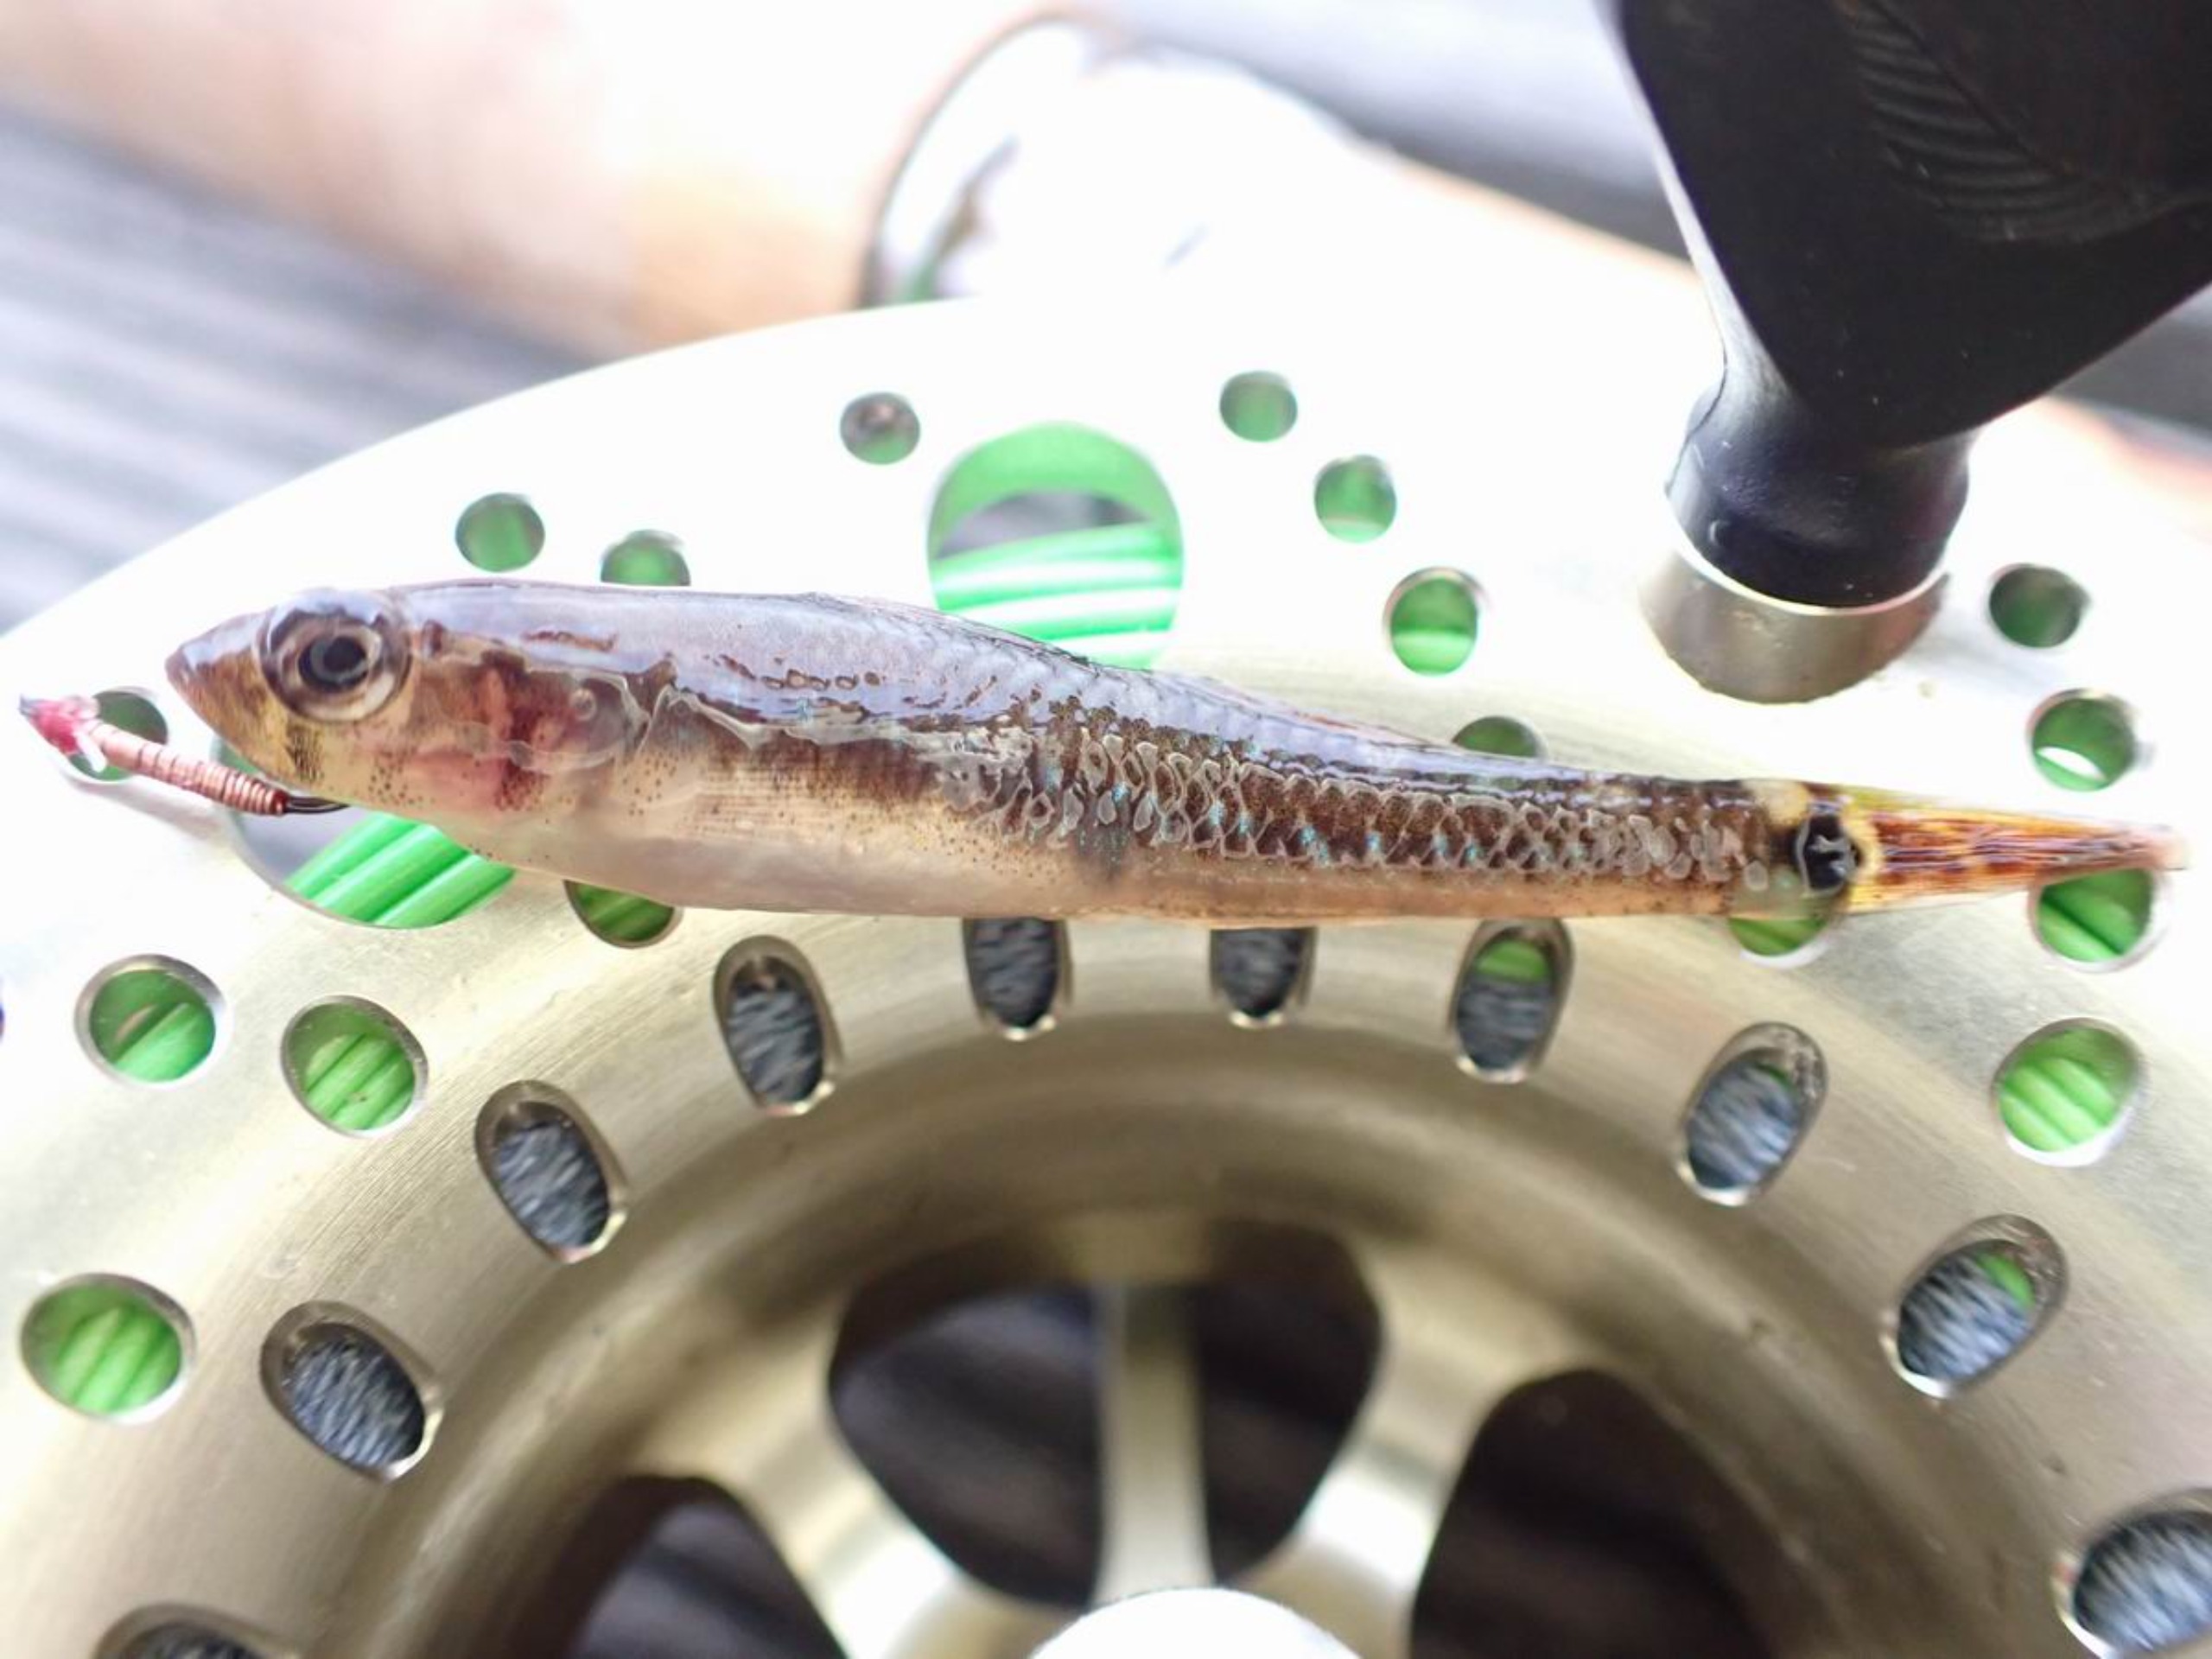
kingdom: Animalia
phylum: Chordata
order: Perciformes
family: Gobiidae
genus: Gobiusculus
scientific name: Gobiusculus flavescens
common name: Toplettet kutling
